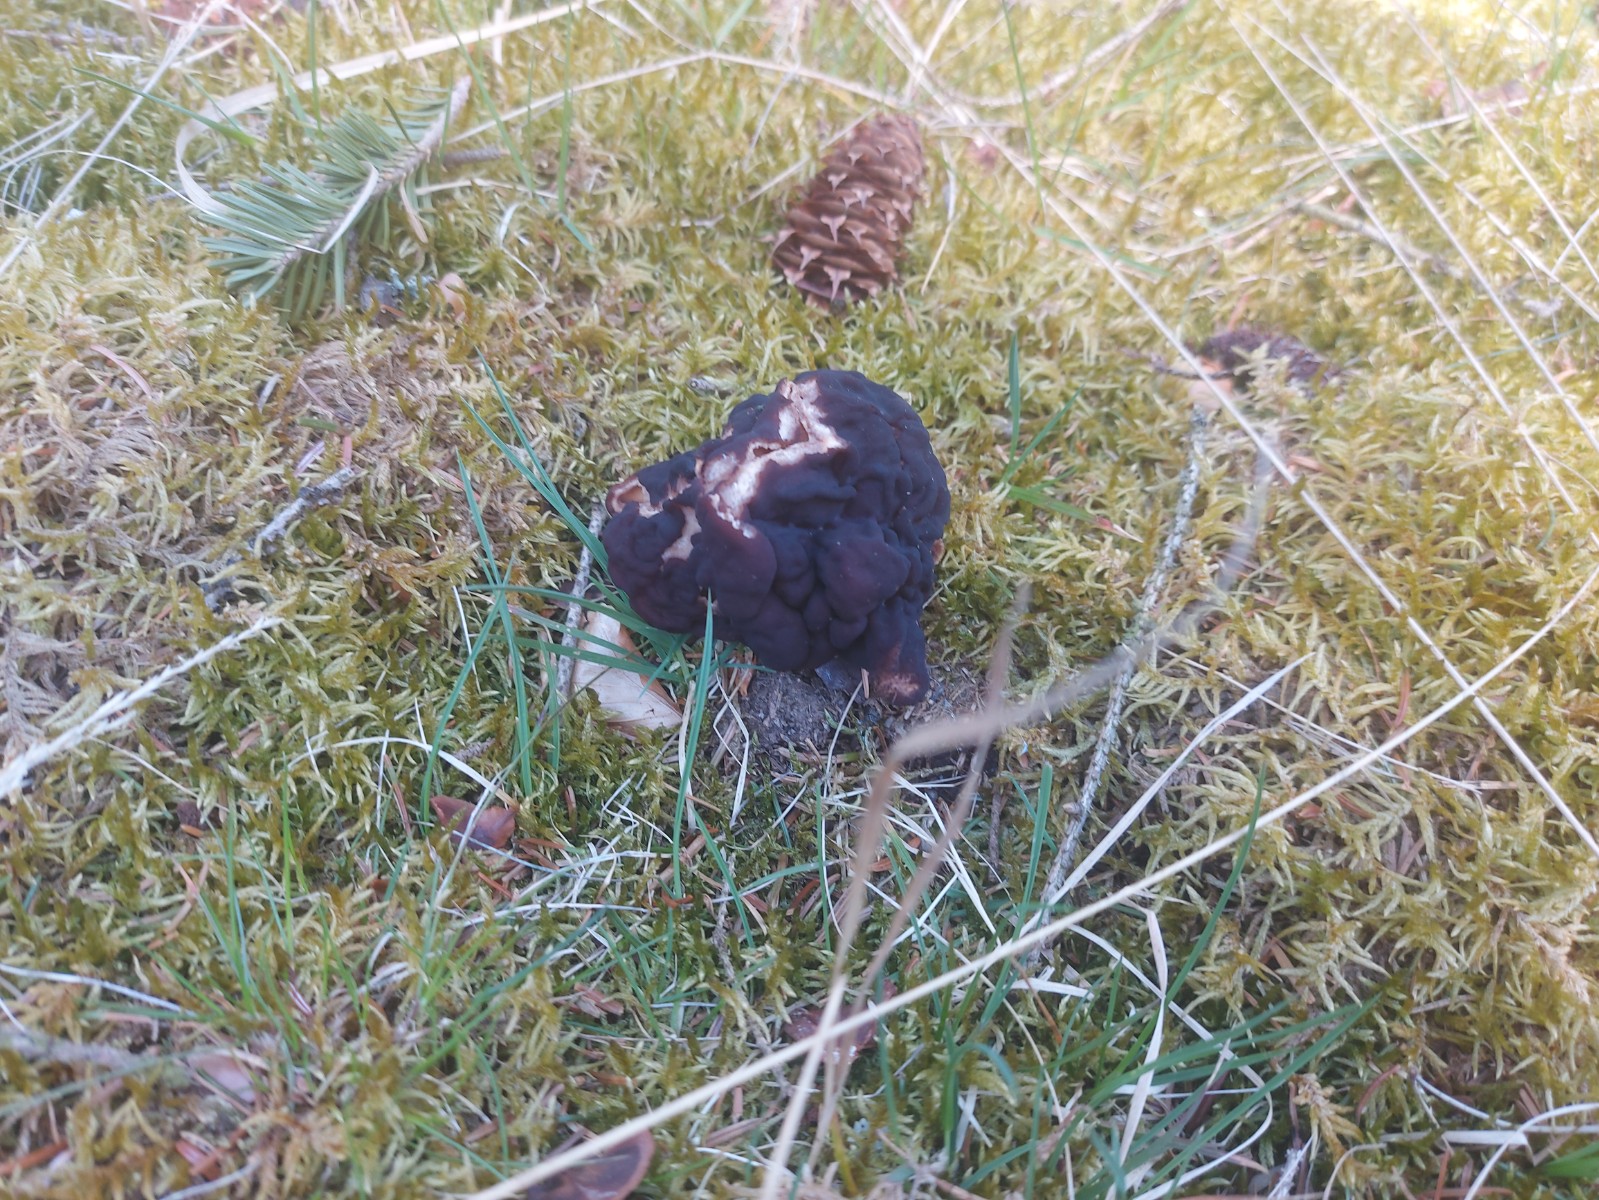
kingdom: Fungi
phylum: Ascomycota
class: Pezizomycetes
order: Pezizales
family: Discinaceae
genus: Gyromitra
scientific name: Gyromitra esculenta
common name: ægte stenmorkel
